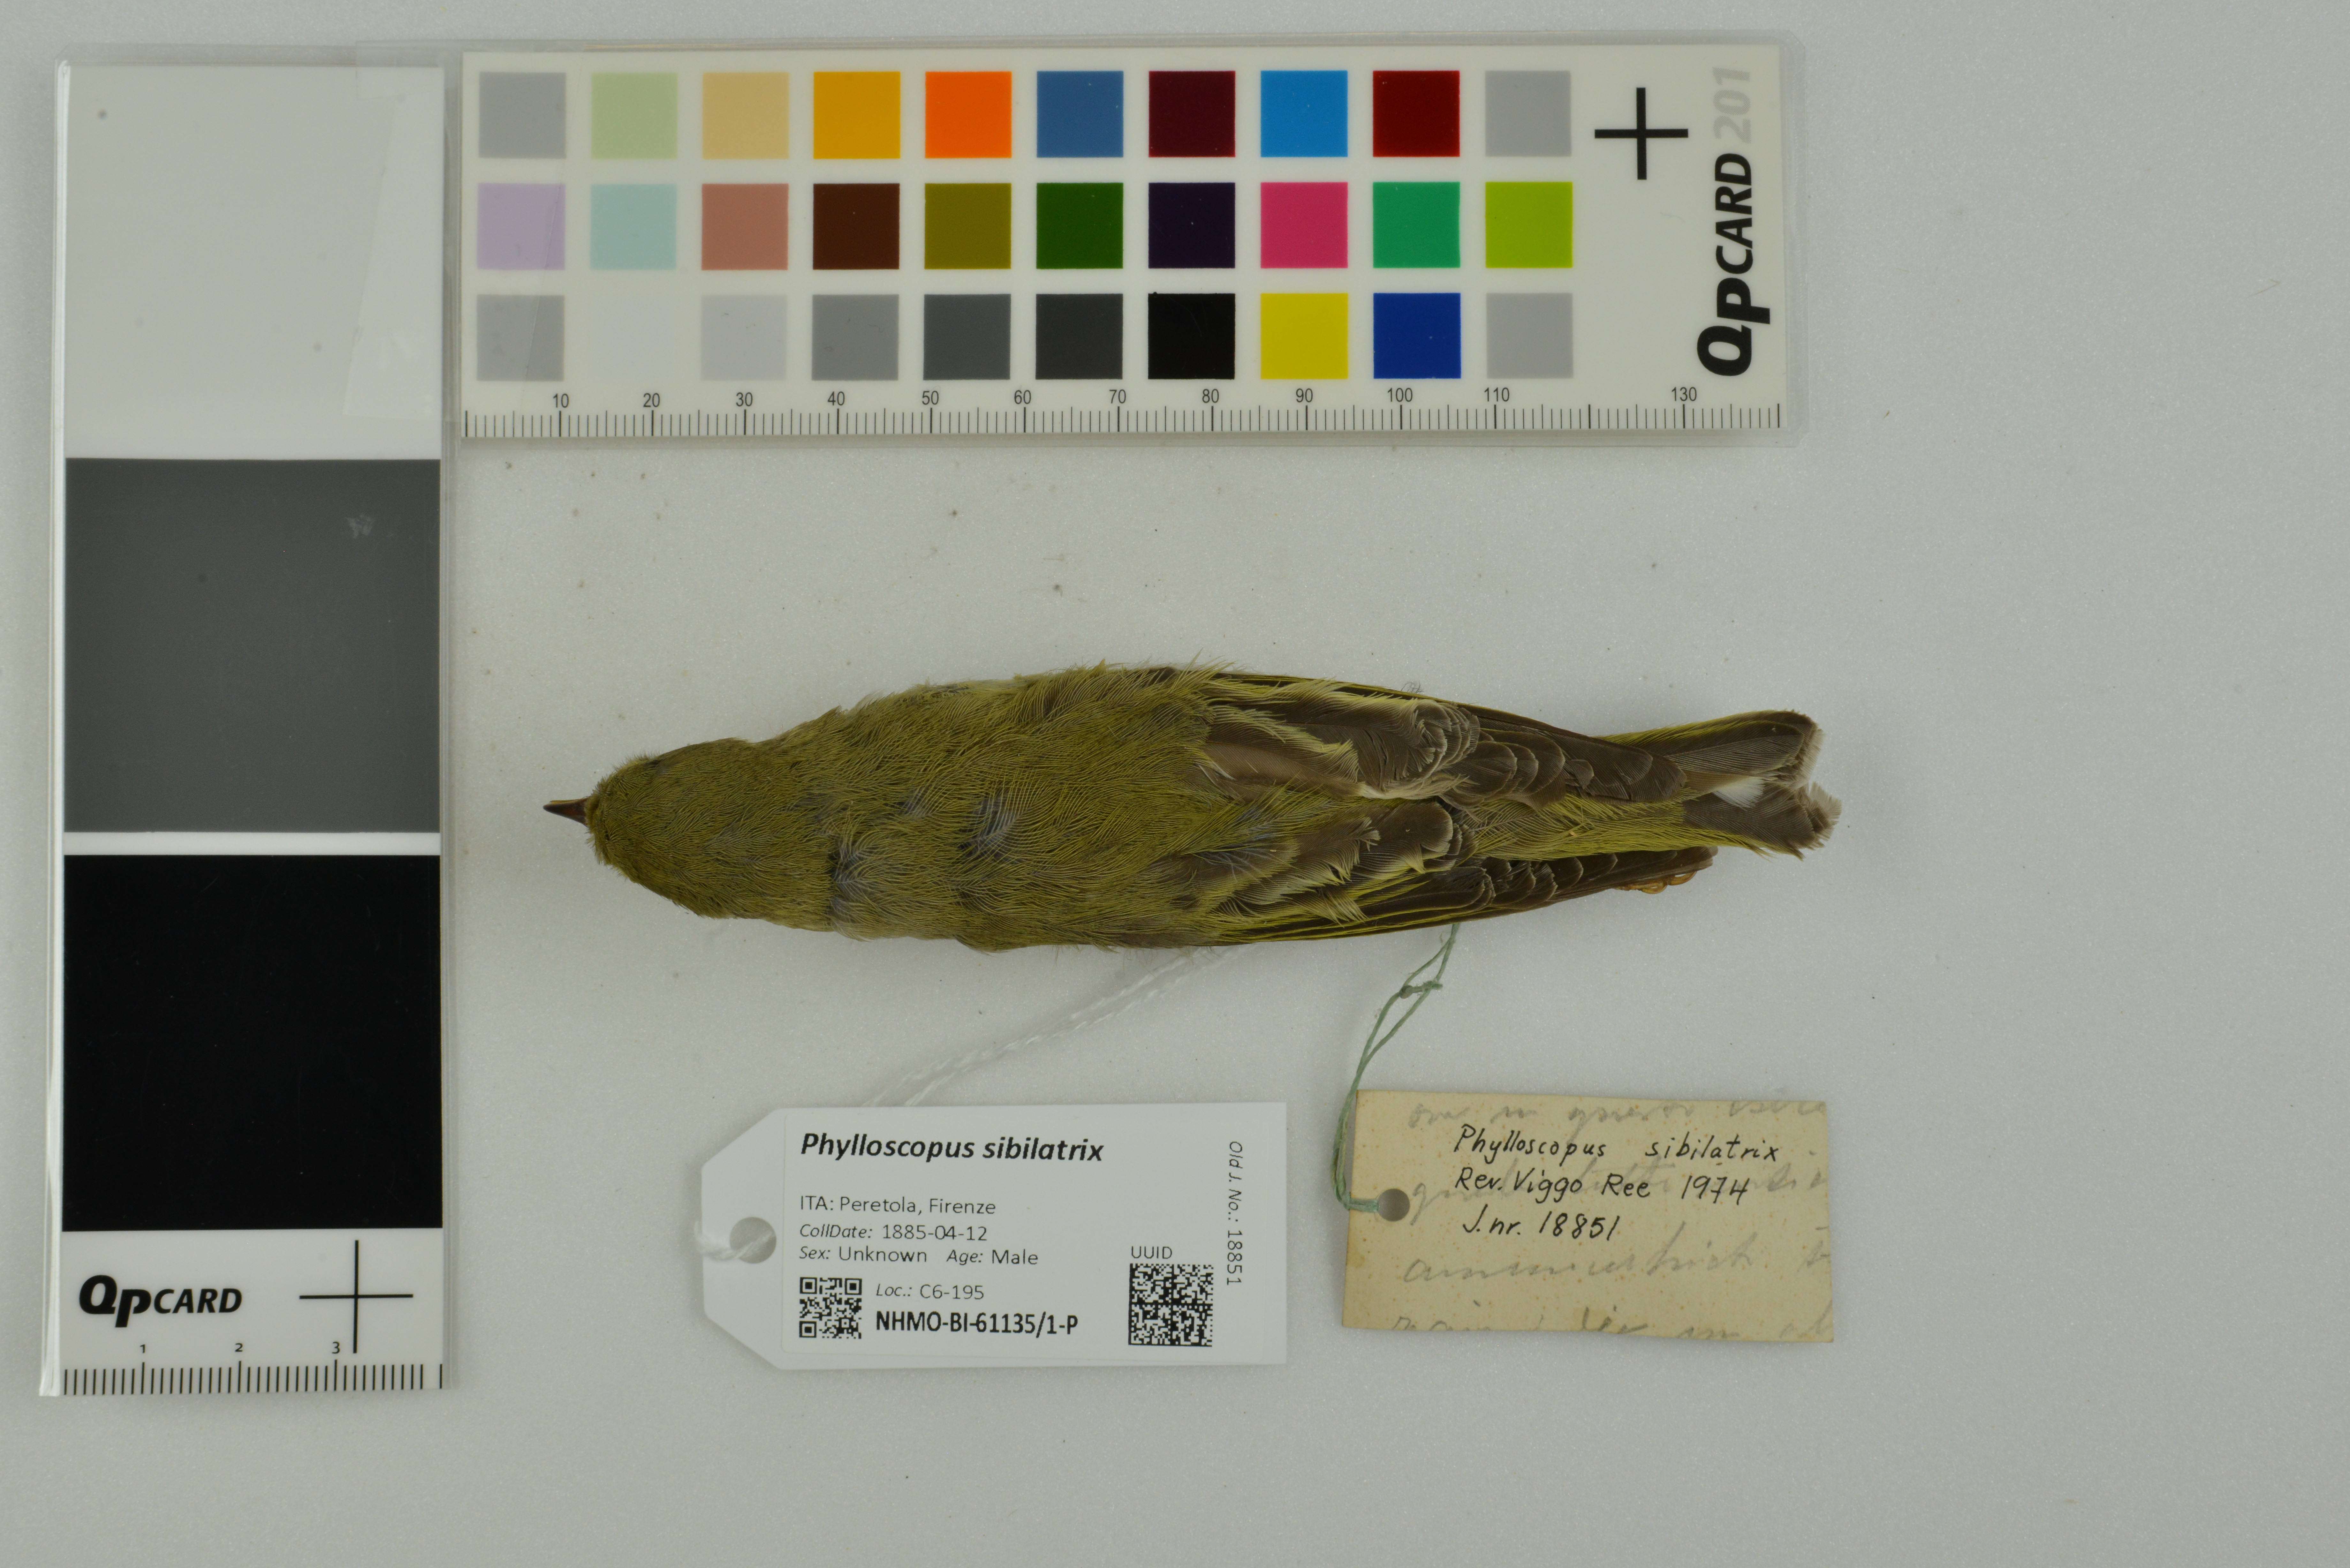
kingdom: Animalia
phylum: Chordata
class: Aves
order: Passeriformes
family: Phylloscopidae
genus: Phylloscopus
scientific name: Phylloscopus sibillatrix
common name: Wood warbler
